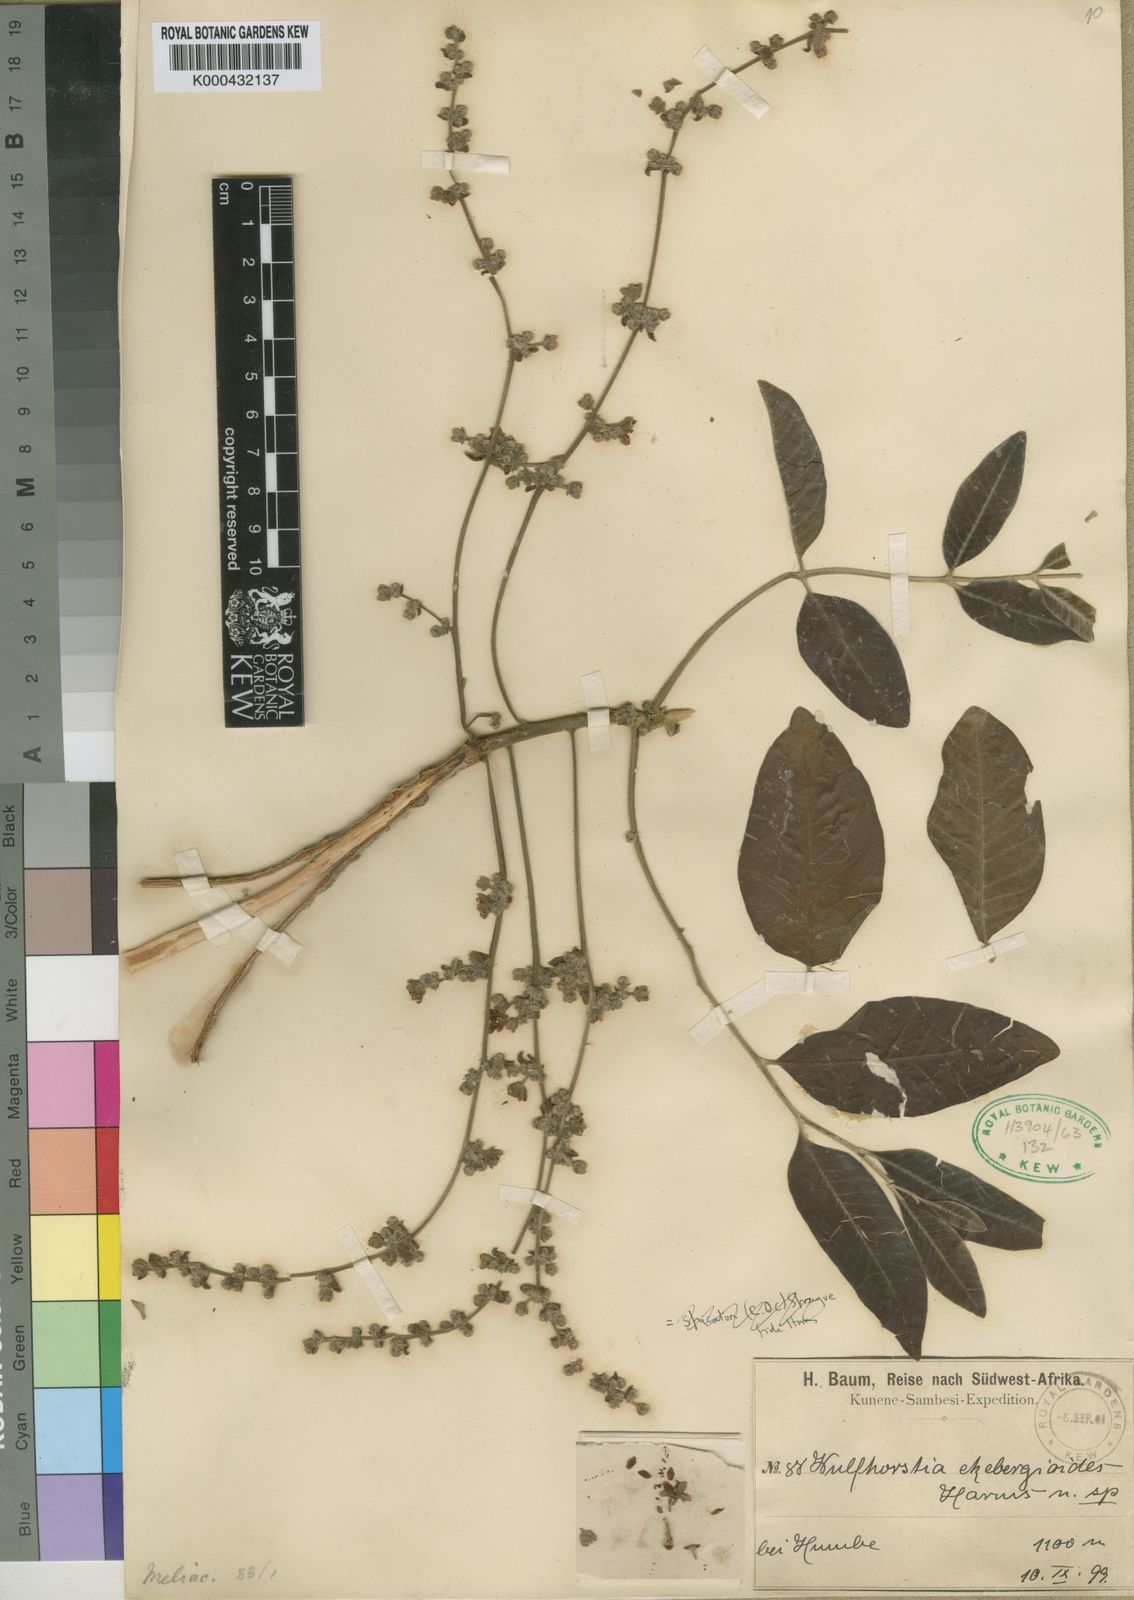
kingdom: Plantae
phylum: Tracheophyta
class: Magnoliopsida
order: Sapindales
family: Meliaceae
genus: Entandrophragma
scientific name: Entandrophragma spicatum
